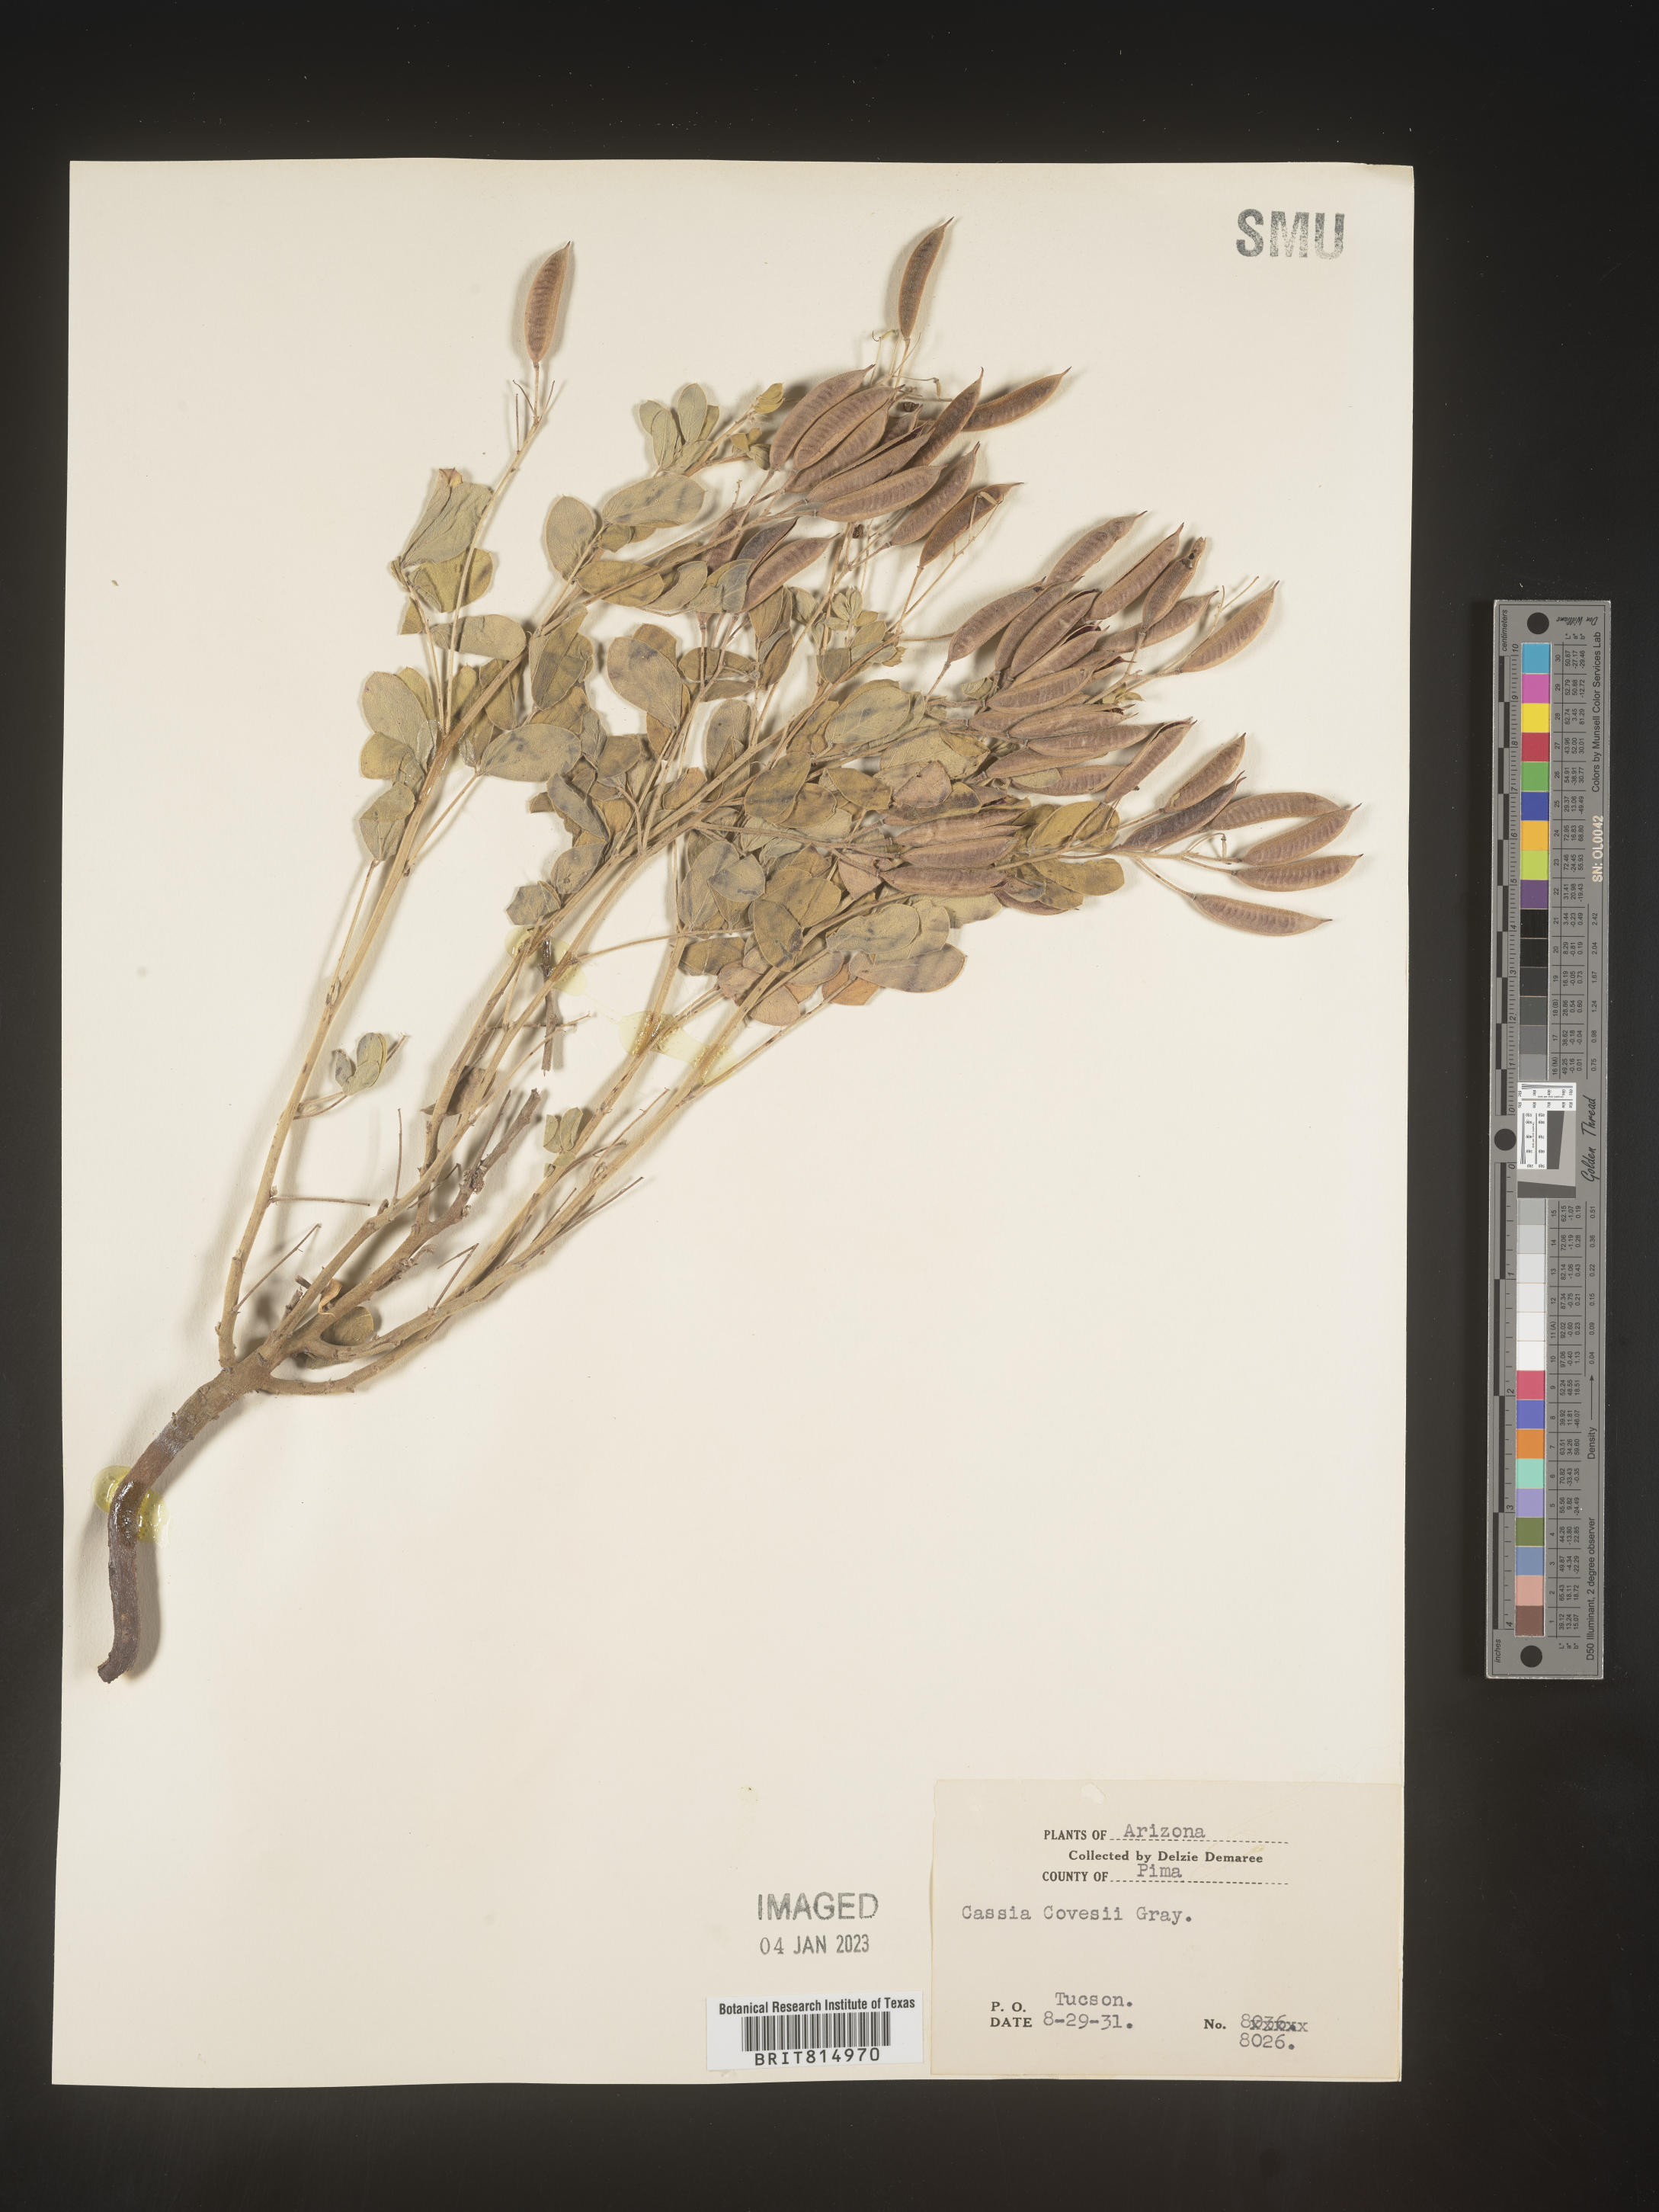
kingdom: Plantae
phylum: Tracheophyta
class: Magnoliopsida
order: Fabales
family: Fabaceae
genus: Cassia
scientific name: Cassia
